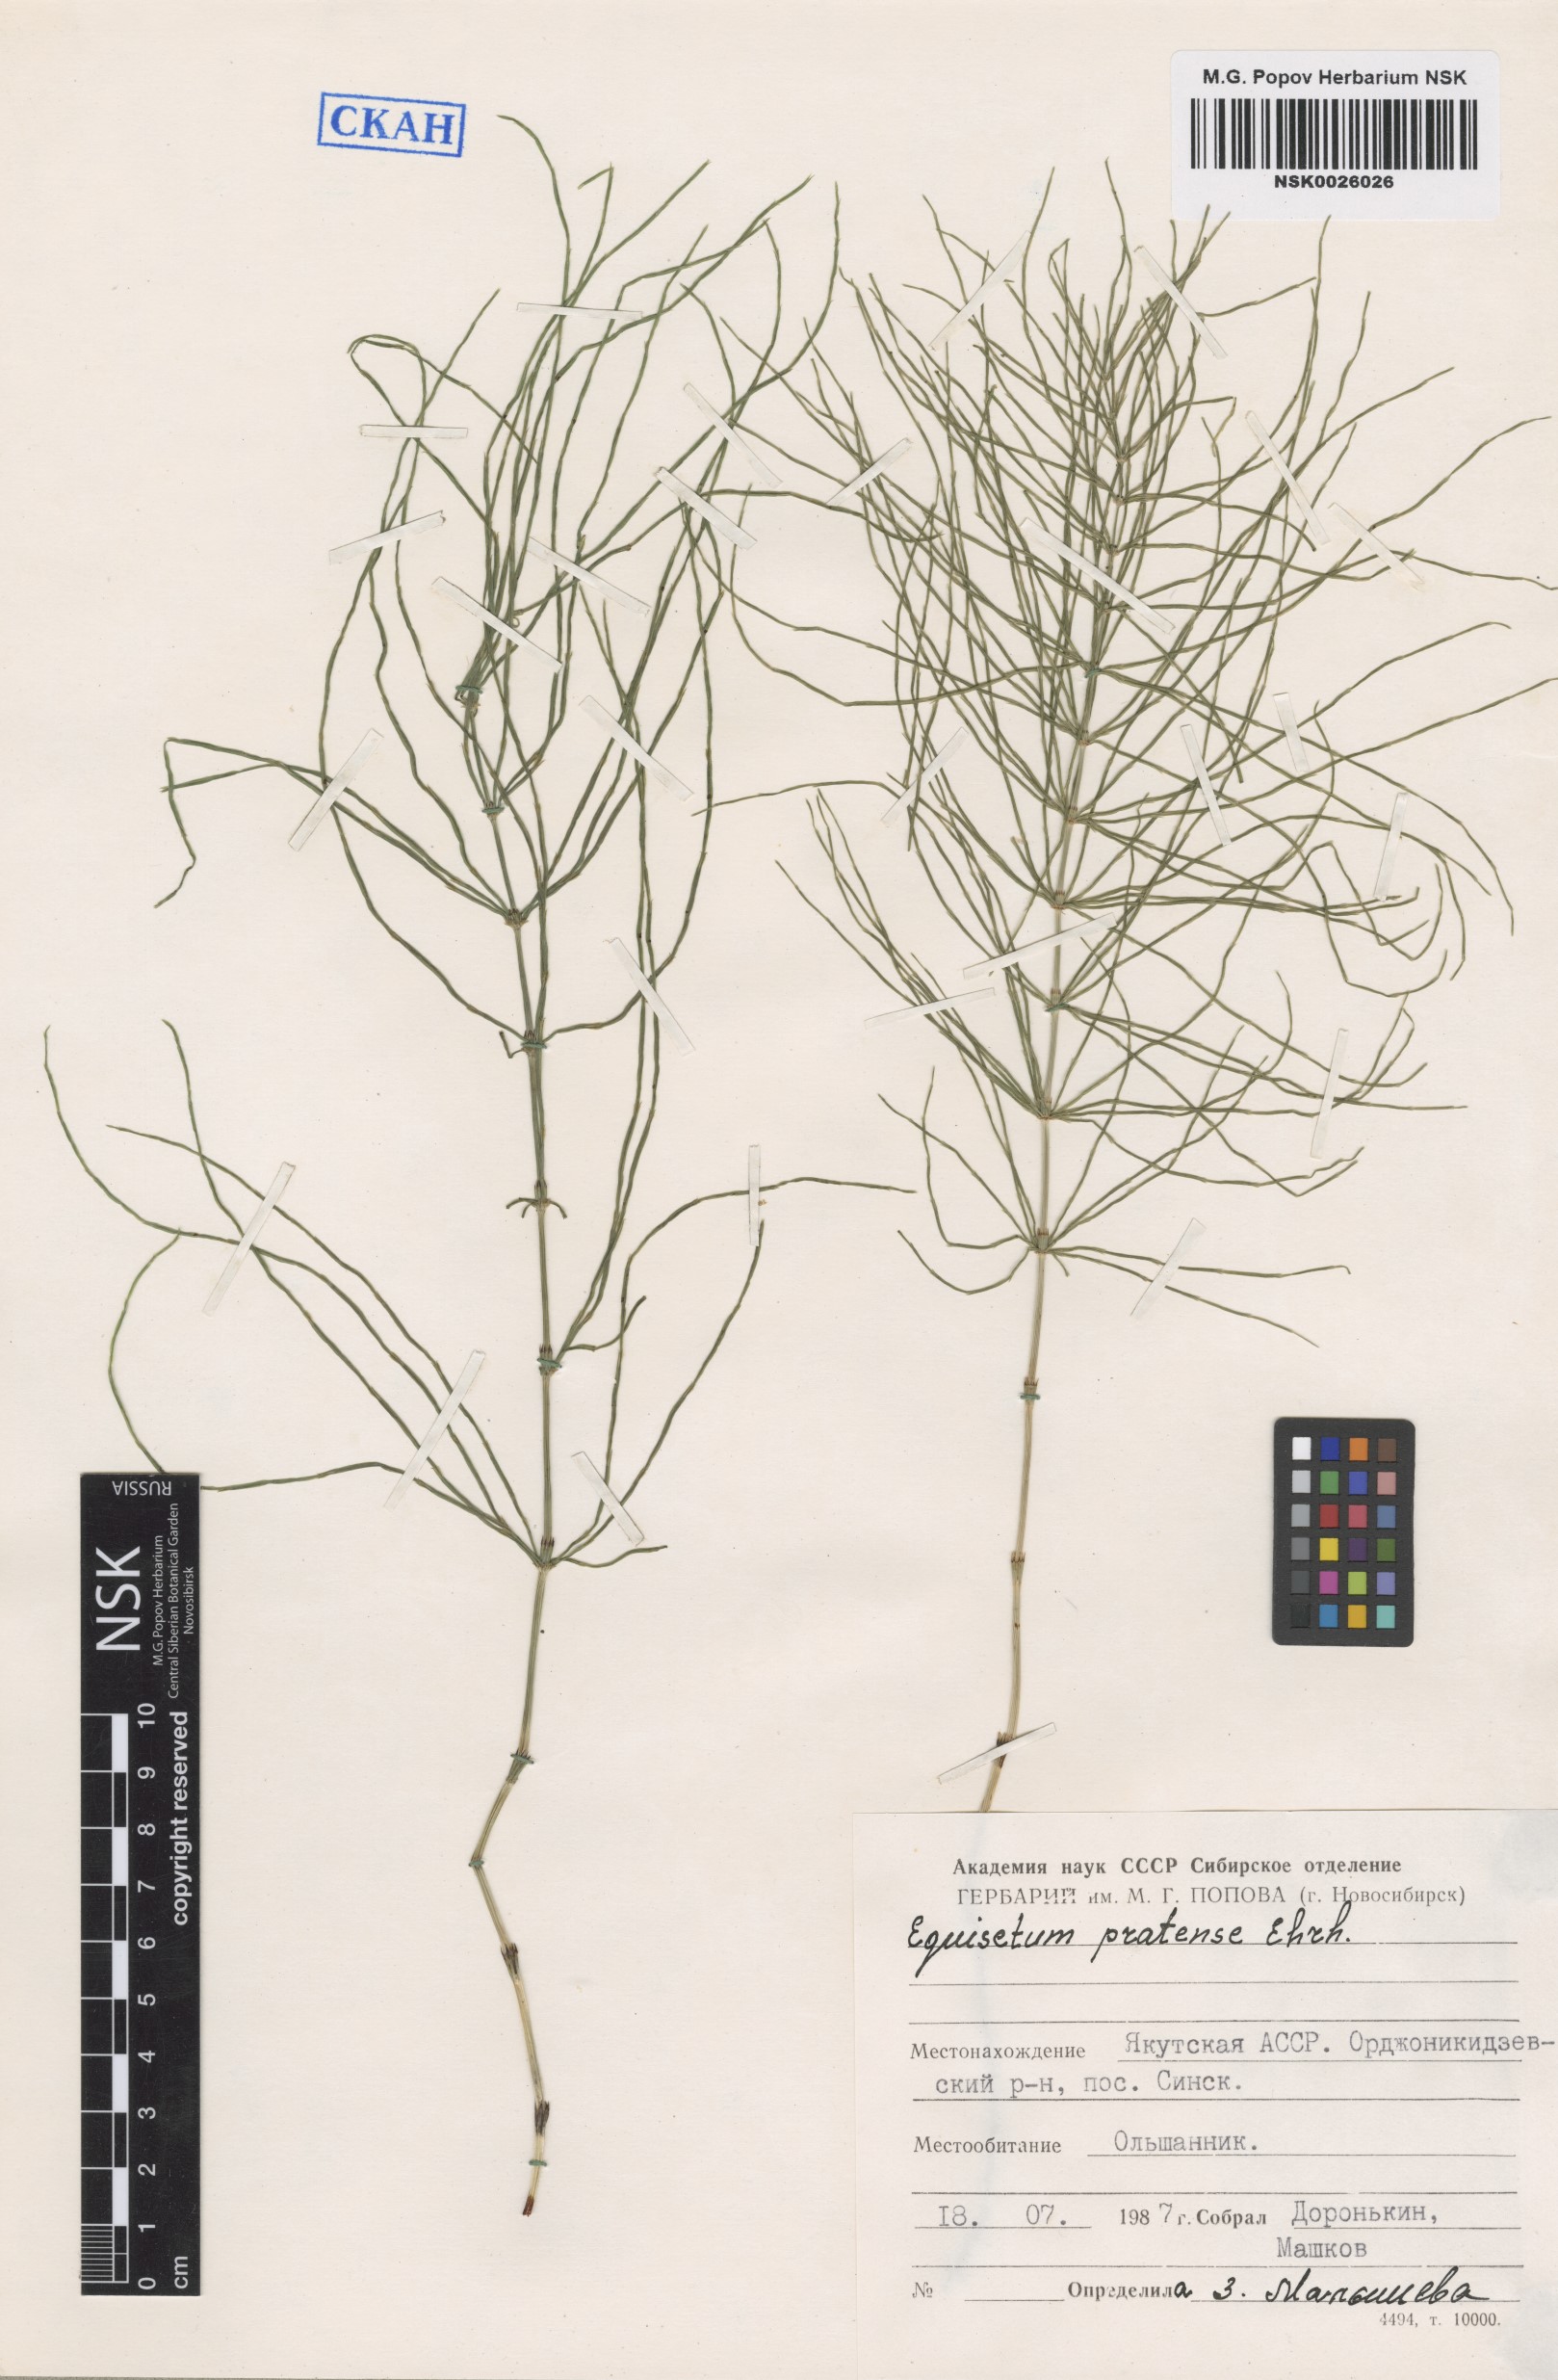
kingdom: Plantae
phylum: Tracheophyta
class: Polypodiopsida
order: Equisetales
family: Equisetaceae
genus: Equisetum
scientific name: Equisetum pratense
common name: Meadow horsetail
